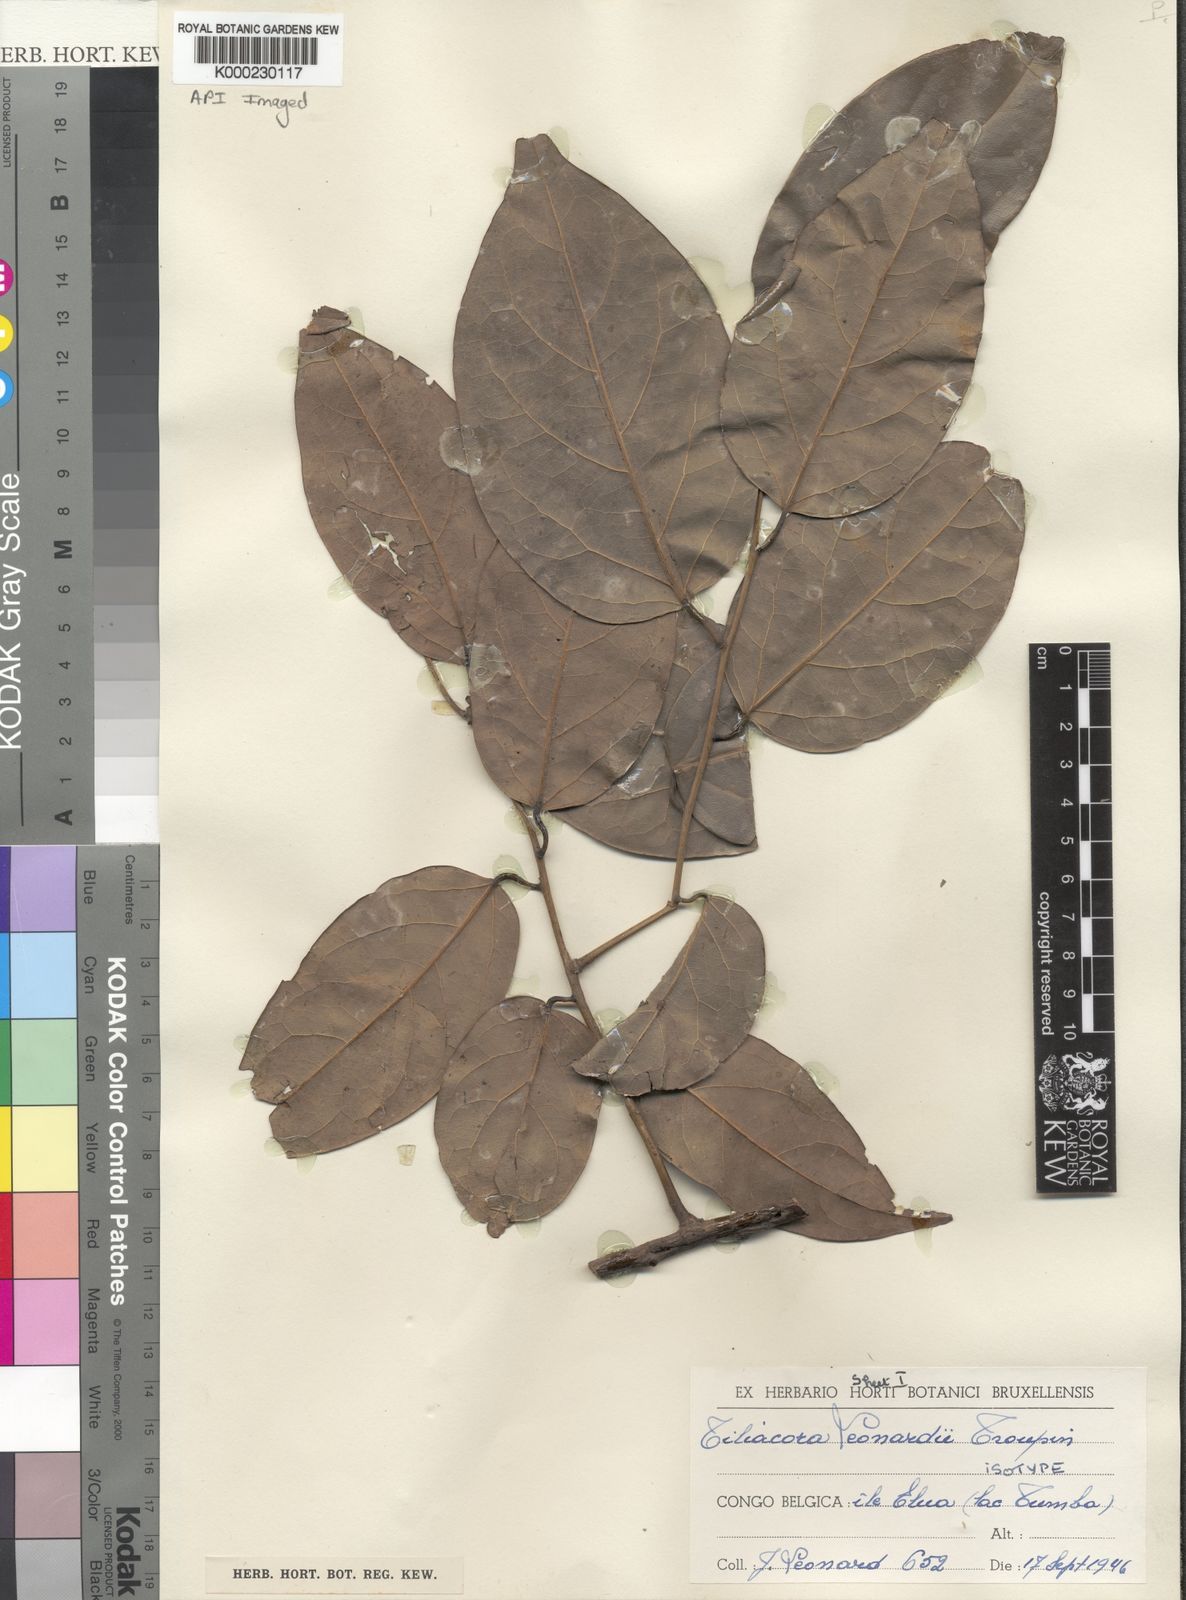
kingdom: Plantae
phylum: Tracheophyta
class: Magnoliopsida
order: Ranunculales
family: Menispermaceae
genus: Tiliacora
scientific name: Tiliacora leonardii
